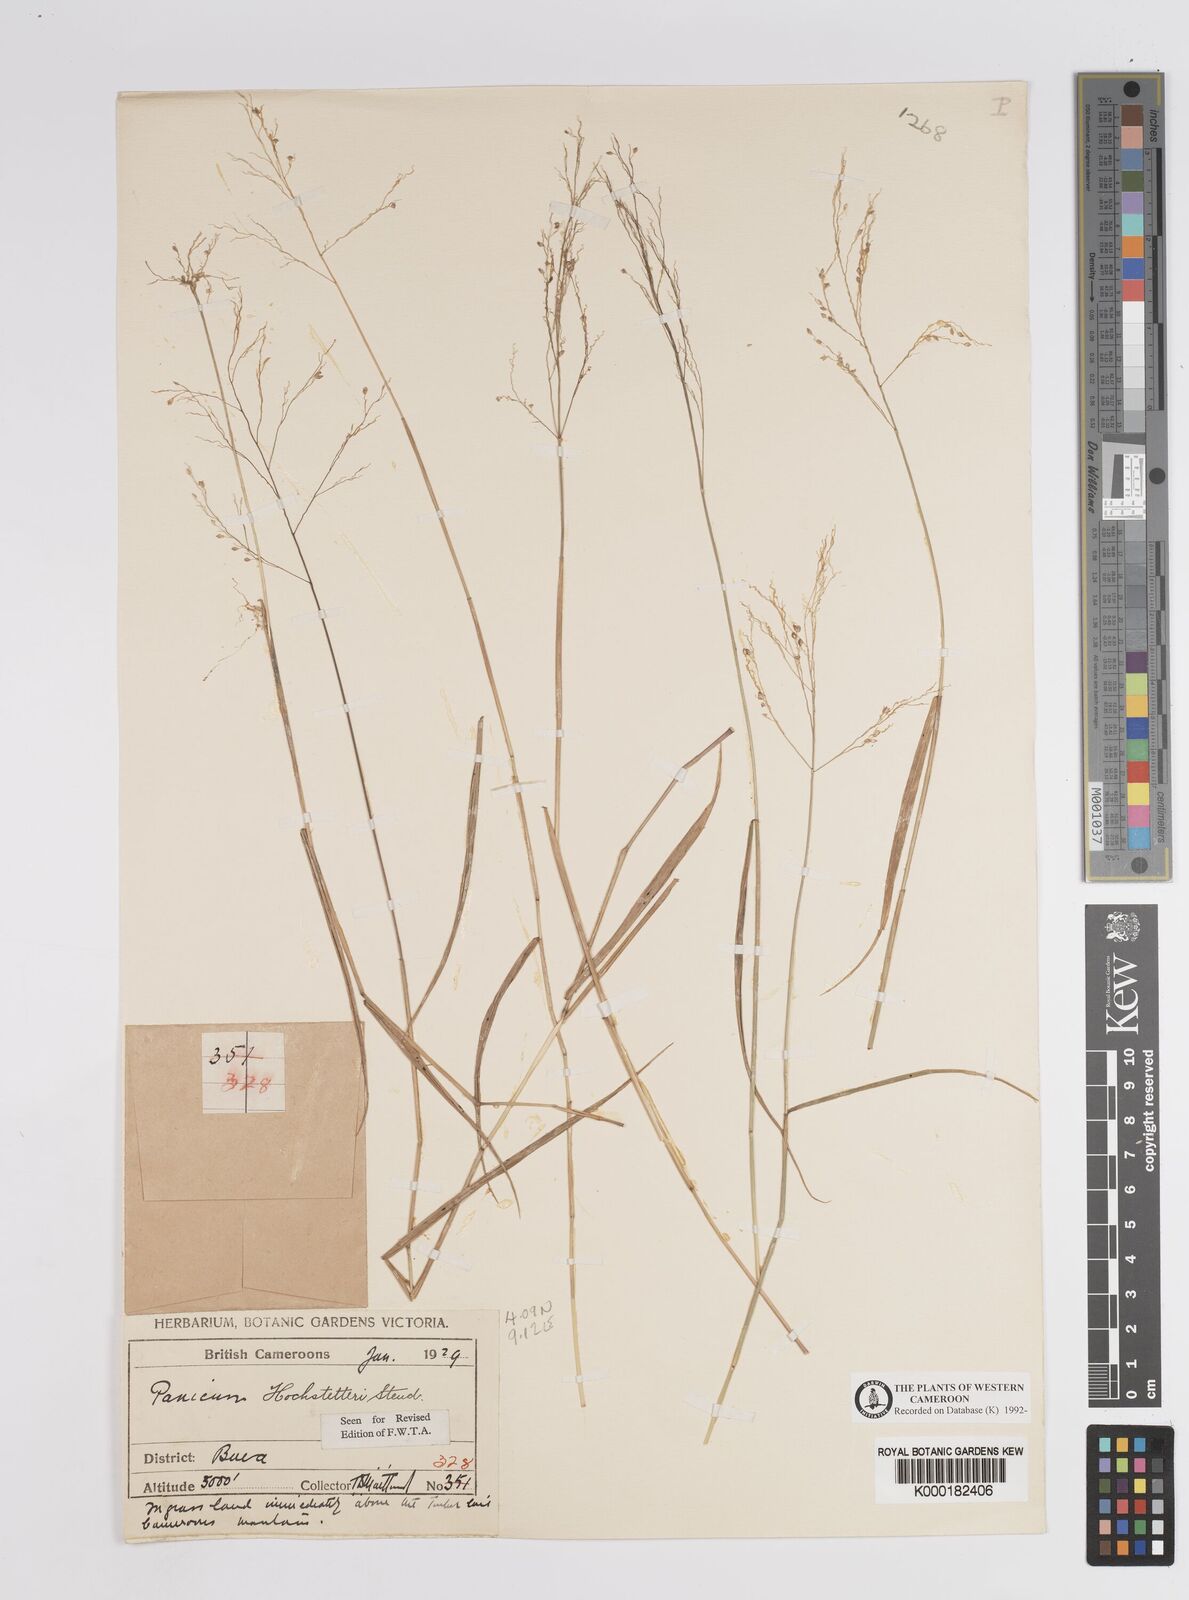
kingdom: Plantae
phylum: Tracheophyta
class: Liliopsida
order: Poales
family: Poaceae
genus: Panicum
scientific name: Panicum hochstetteri
